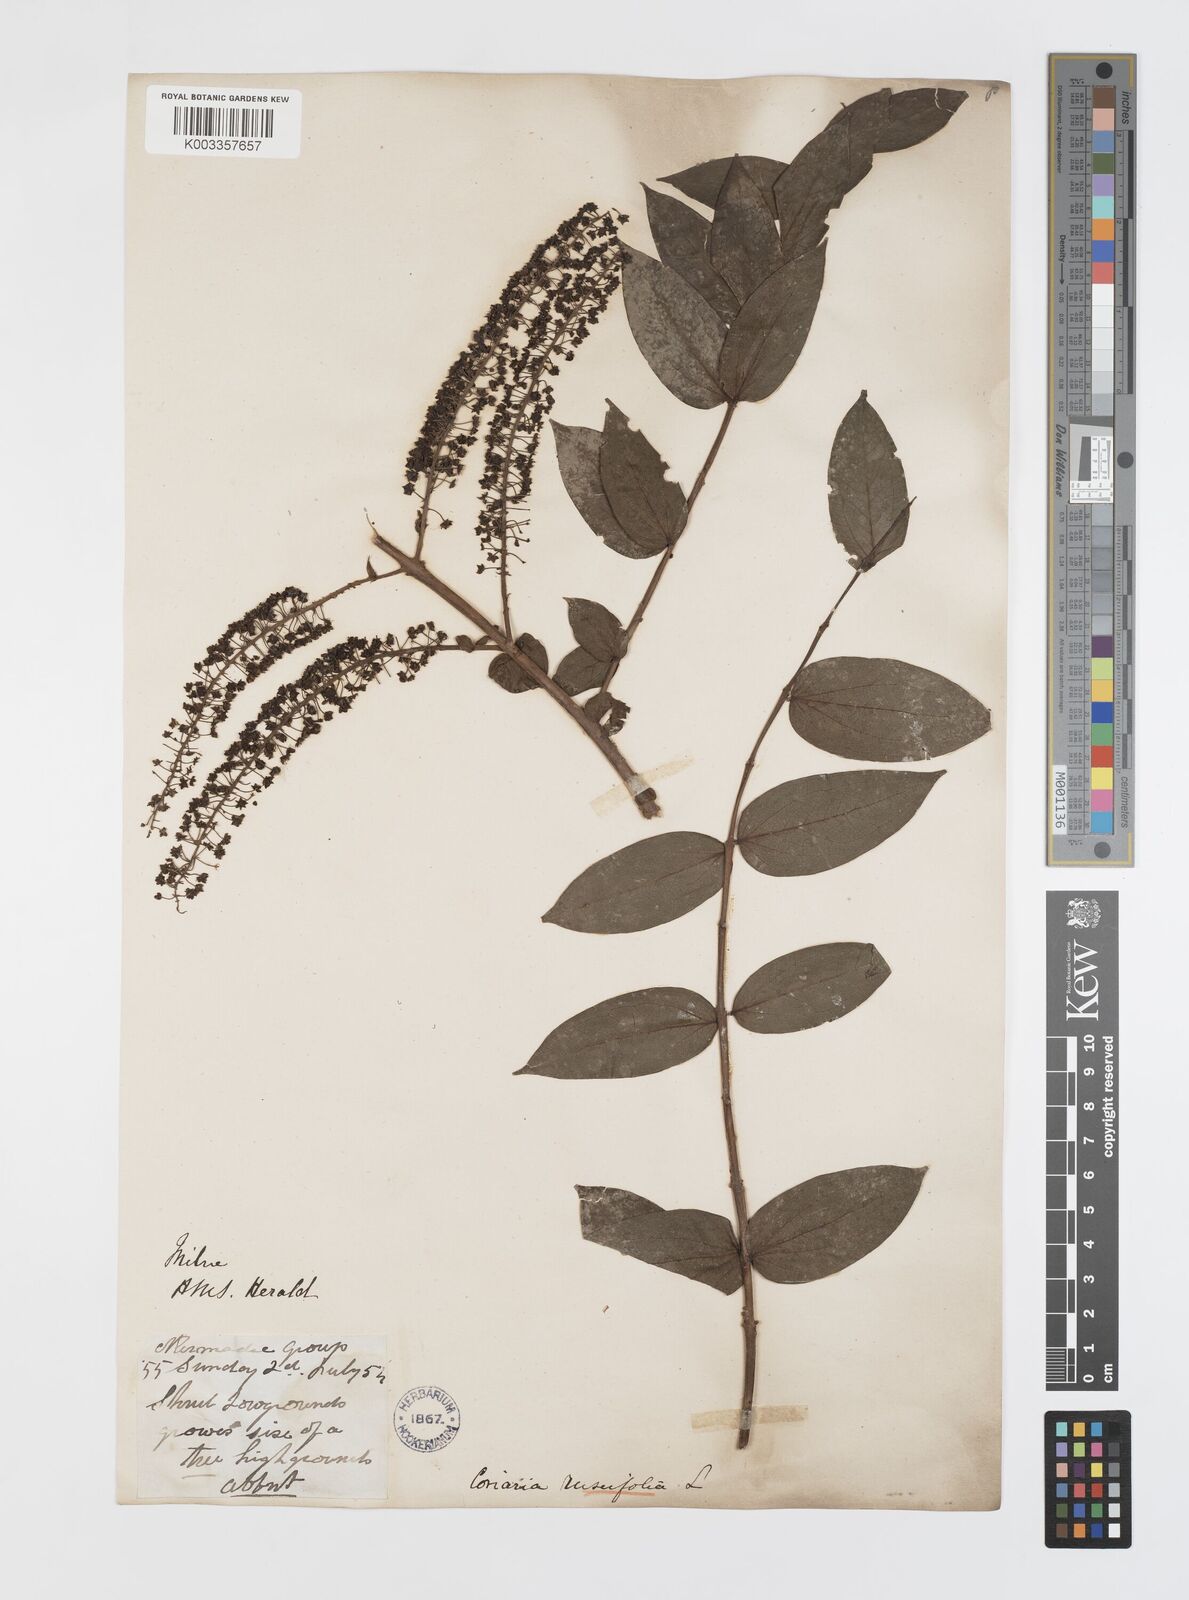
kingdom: Plantae
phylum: Tracheophyta
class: Magnoliopsida
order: Cucurbitales
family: Coriariaceae
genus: Coriaria
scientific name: Coriaria ruscifolia
